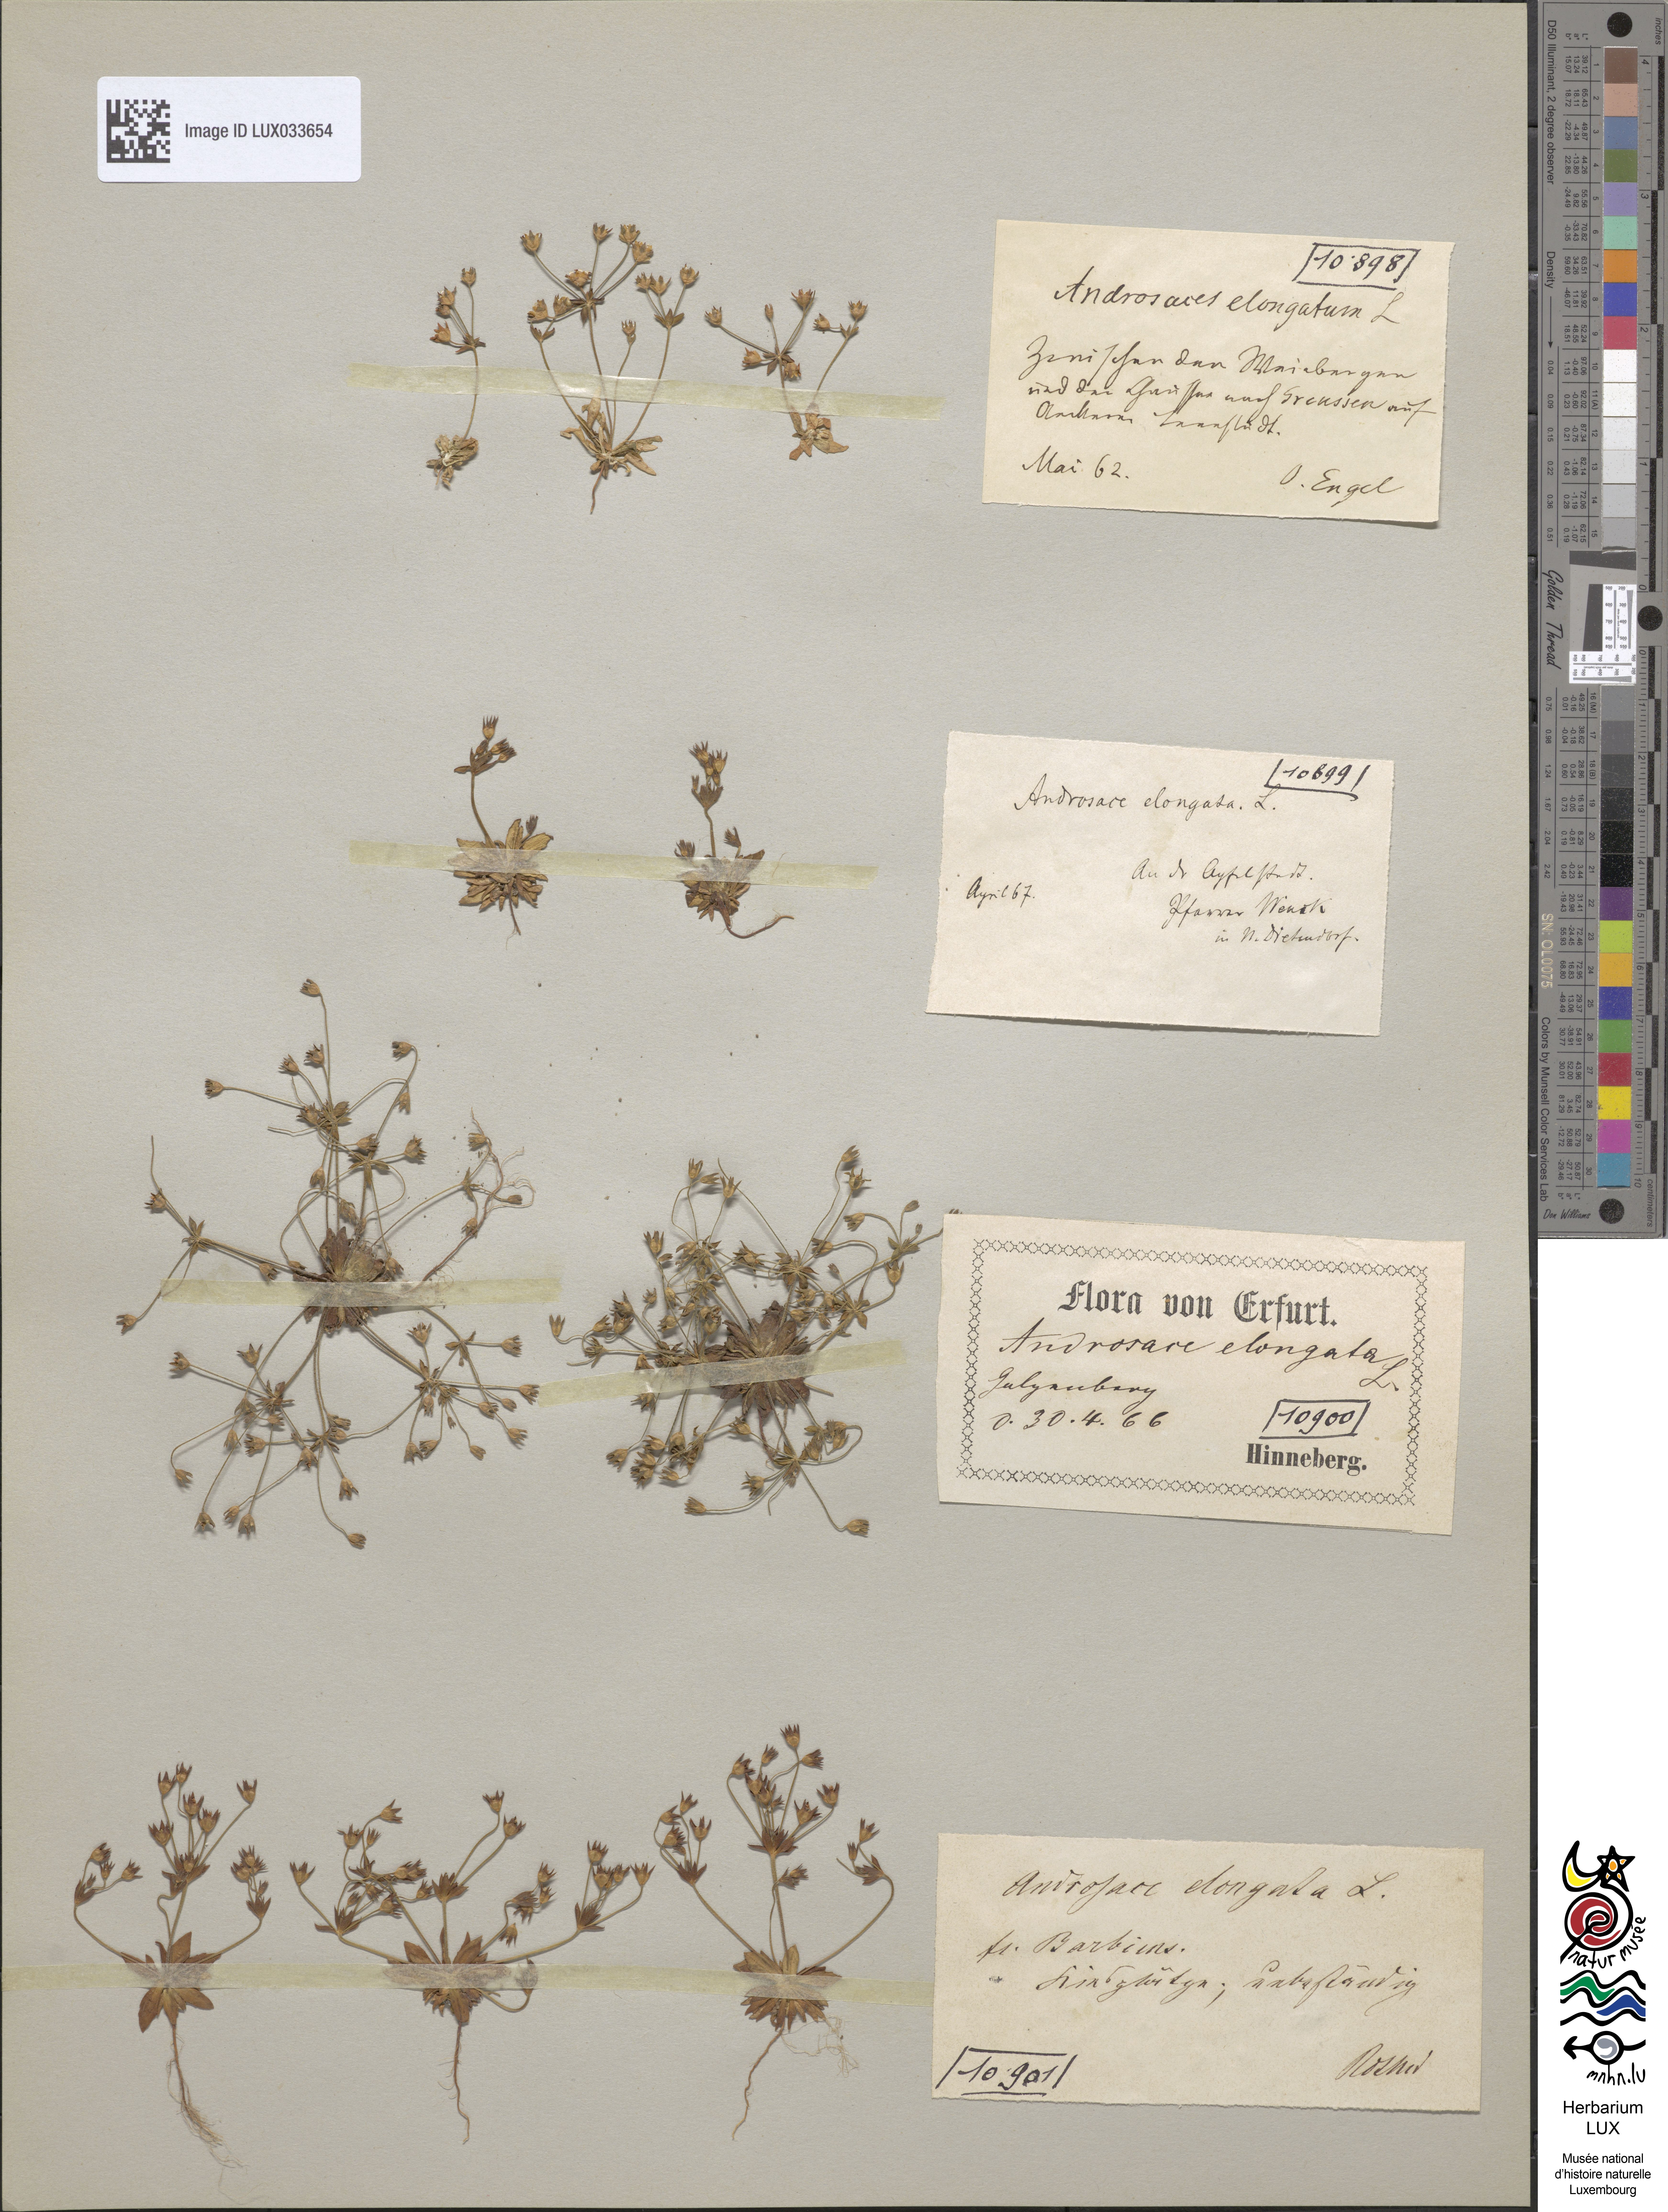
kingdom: Plantae
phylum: Tracheophyta
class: Magnoliopsida
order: Ericales
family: Primulaceae
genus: Androsace
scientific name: Androsace elongata
